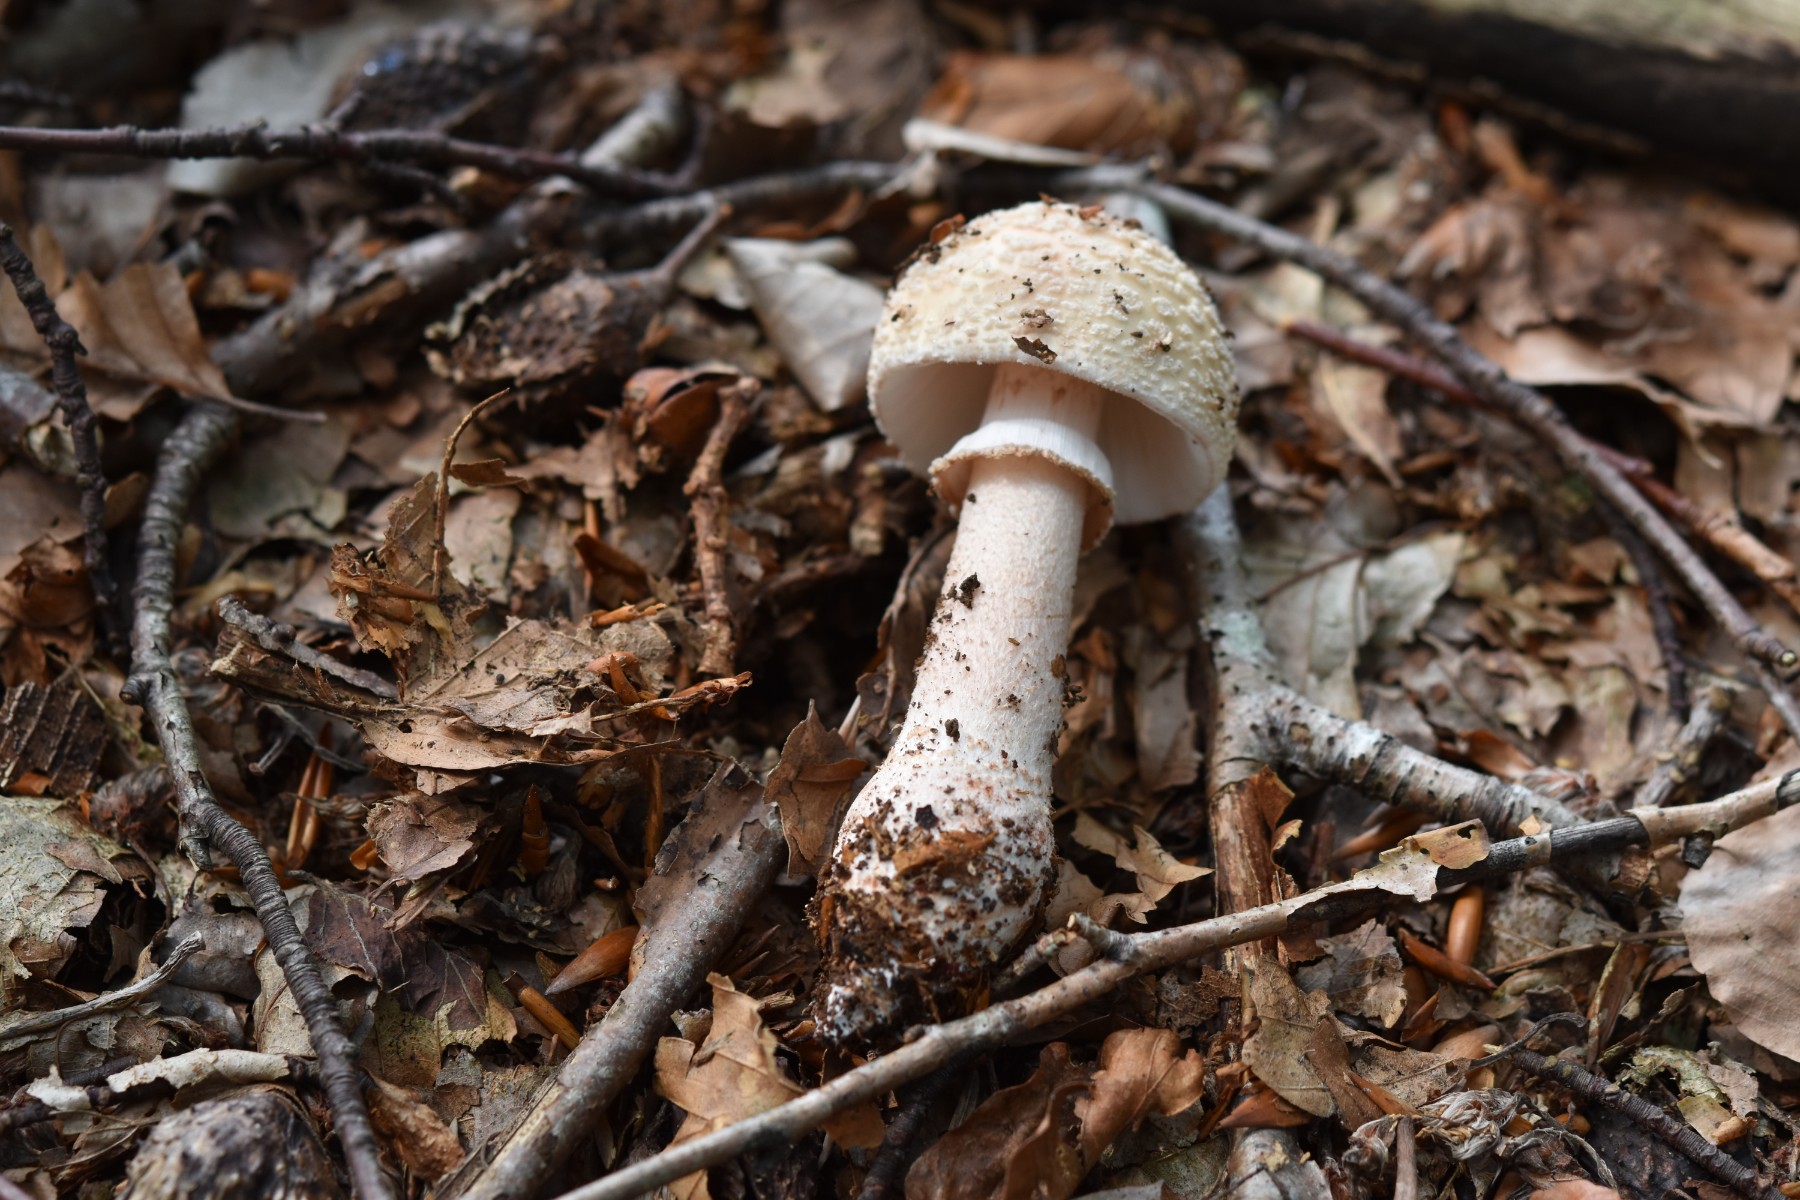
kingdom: Fungi
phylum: Basidiomycota
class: Agaricomycetes
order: Agaricales
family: Amanitaceae
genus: Amanita
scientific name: Amanita rubescens
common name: rødmende fluesvamp
